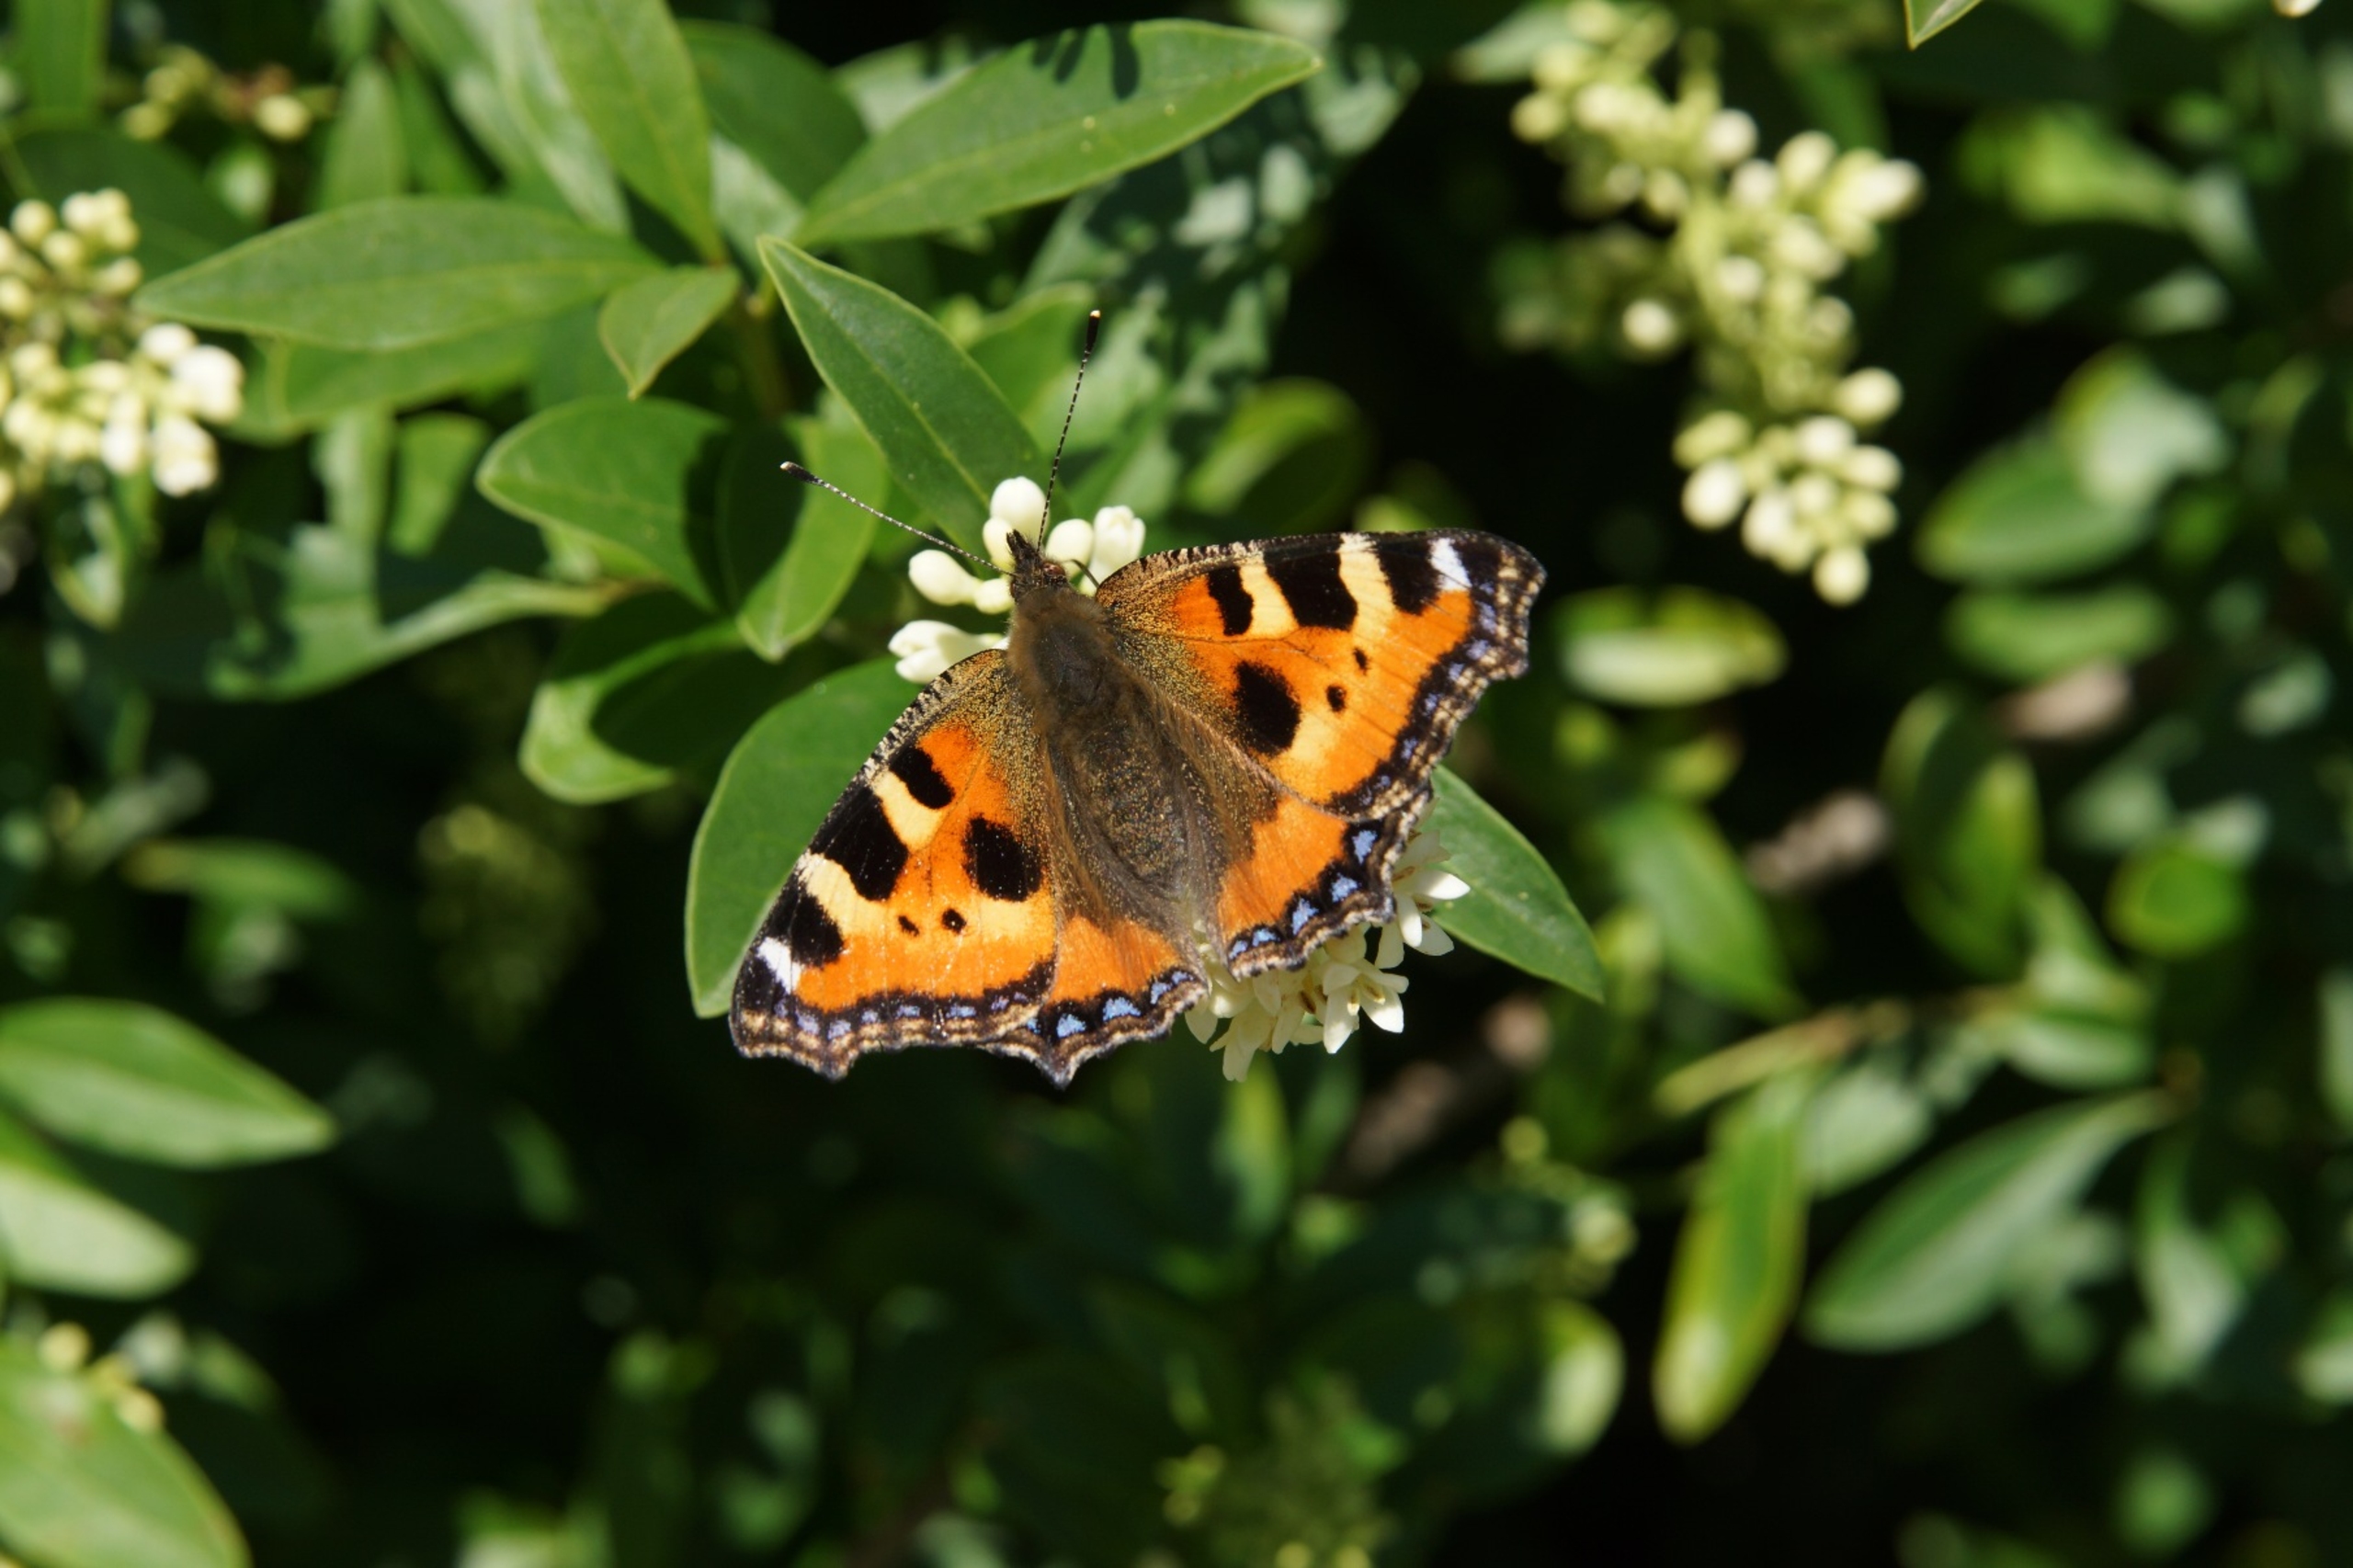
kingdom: Animalia
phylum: Arthropoda
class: Insecta
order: Lepidoptera
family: Nymphalidae
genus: Aglais
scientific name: Aglais urticae
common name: Nældens takvinge
